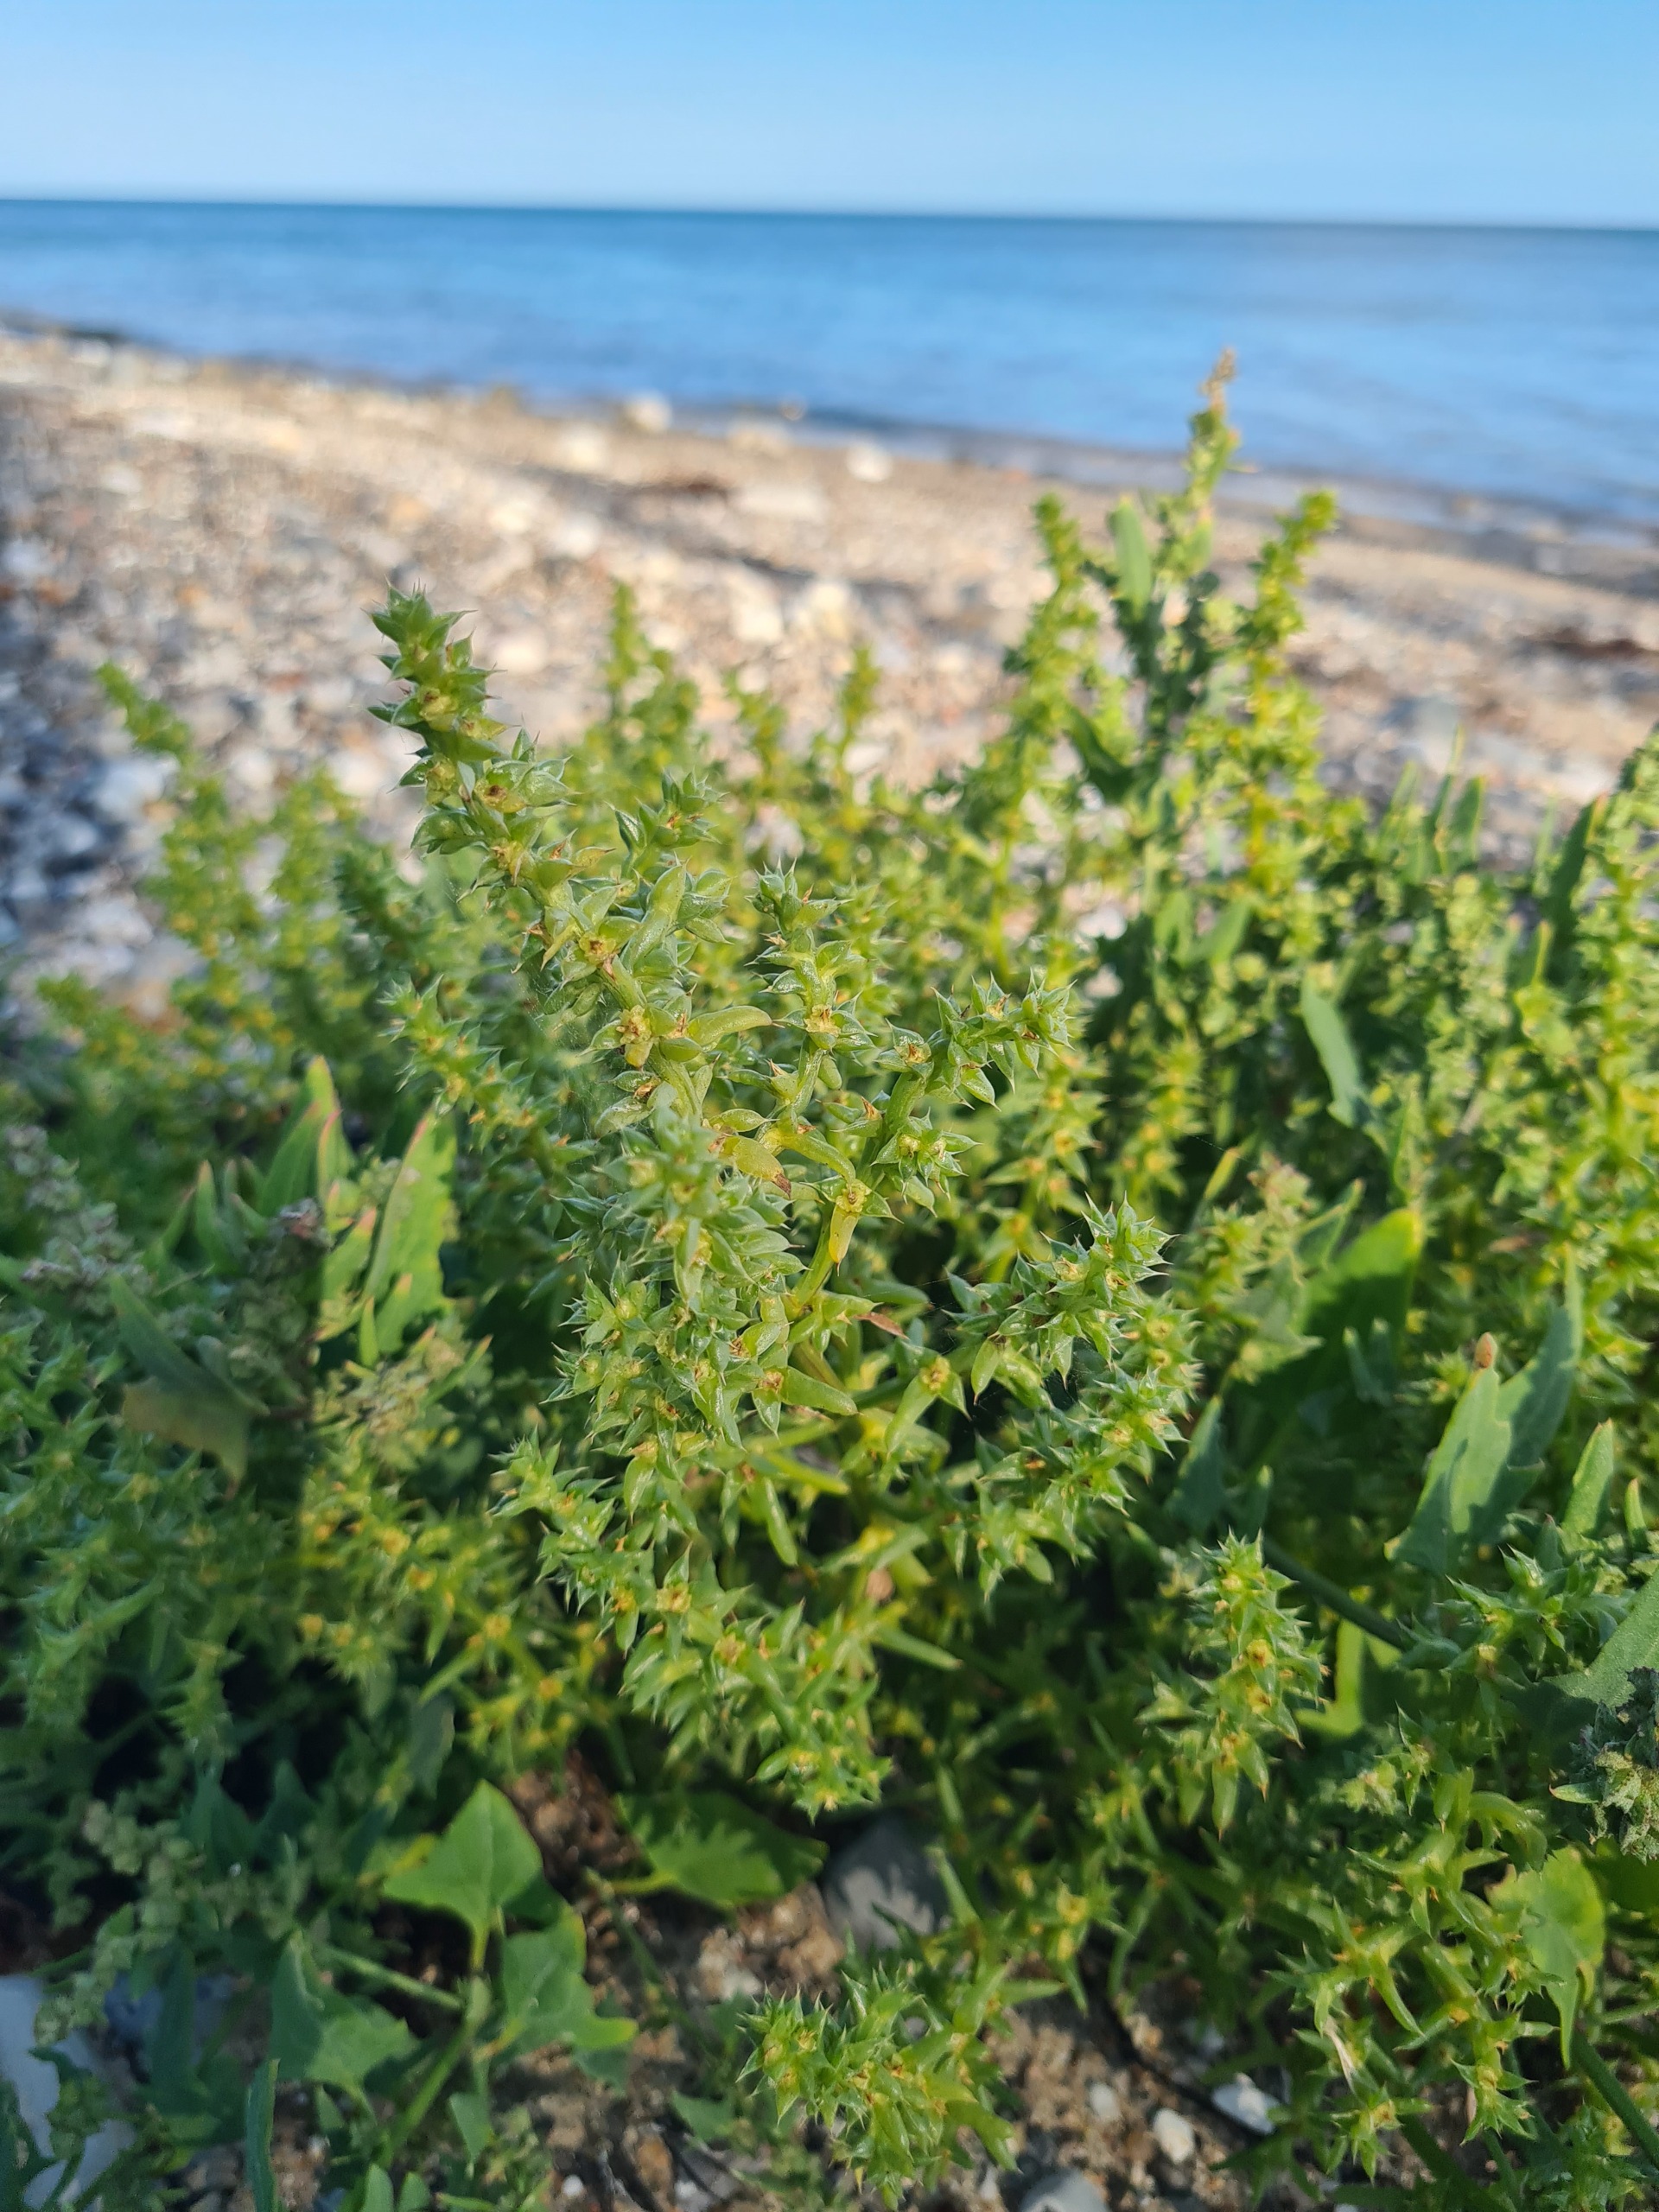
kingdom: Plantae
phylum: Tracheophyta
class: Magnoliopsida
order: Caryophyllales
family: Amaranthaceae
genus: Salsola
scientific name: Salsola kali
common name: Sodaurt
